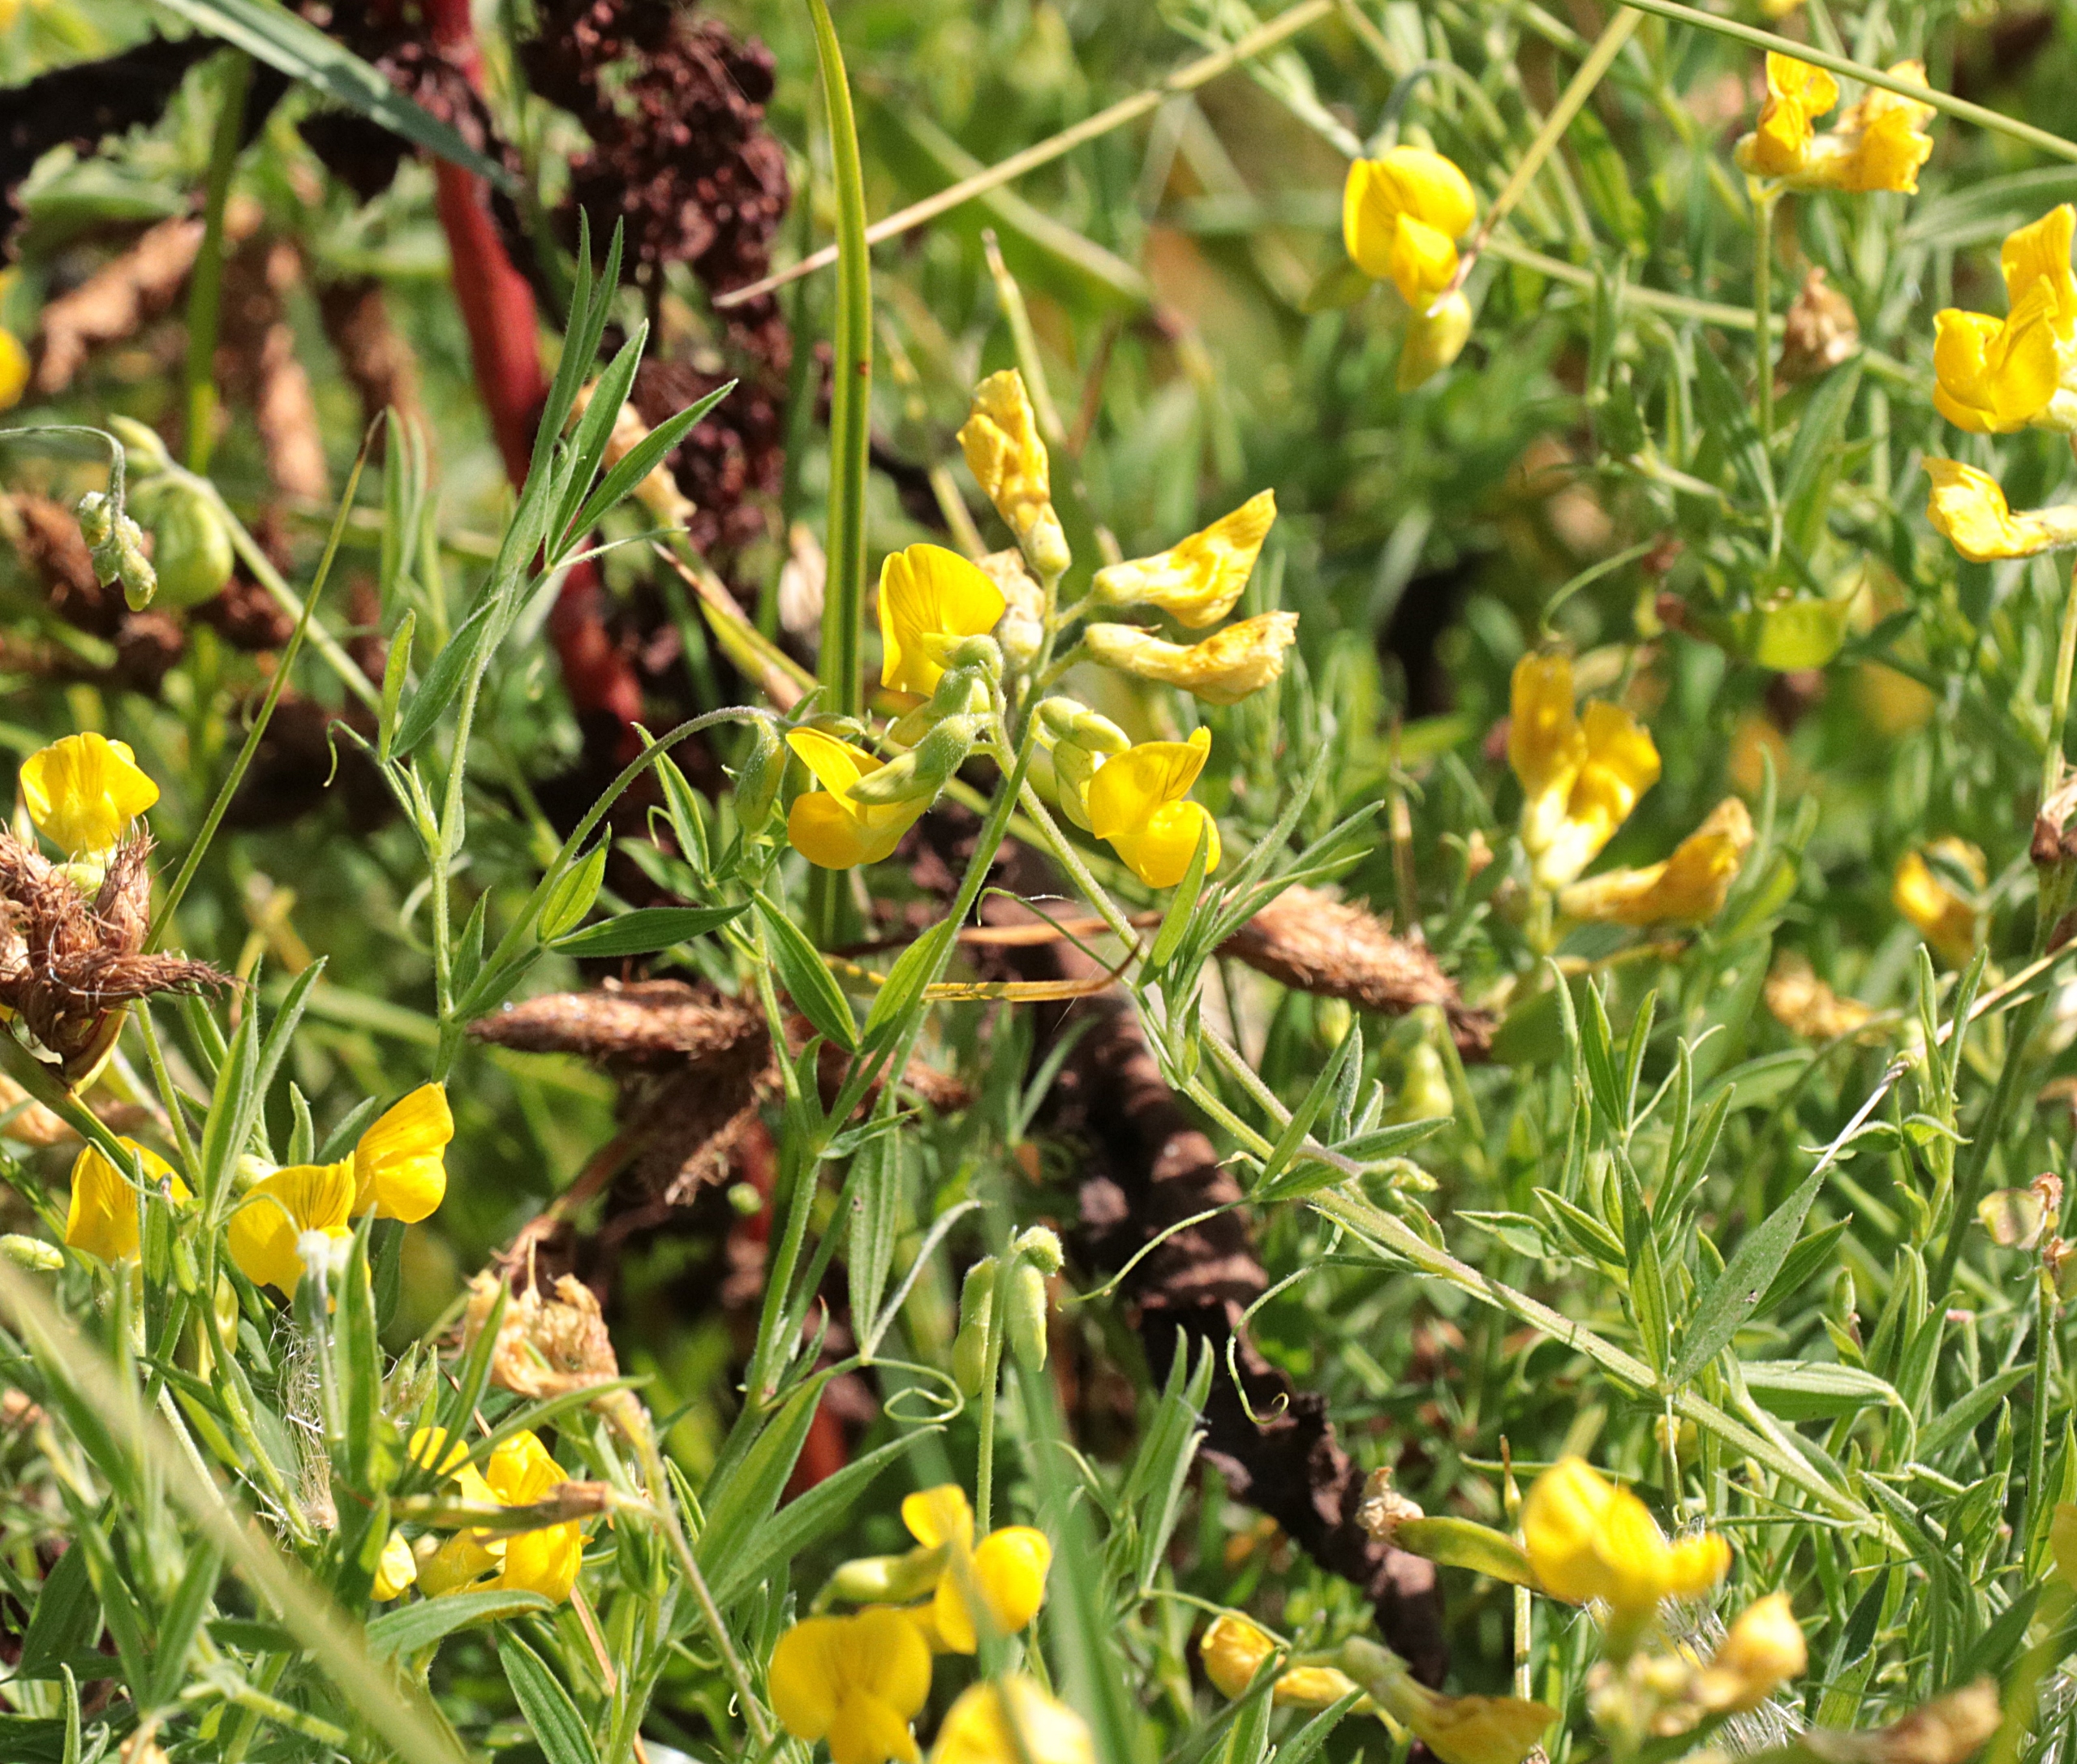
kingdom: Plantae
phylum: Tracheophyta
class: Magnoliopsida
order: Fabales
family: Fabaceae
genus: Lathyrus
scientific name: Lathyrus pratensis
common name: Gul fladbælg
